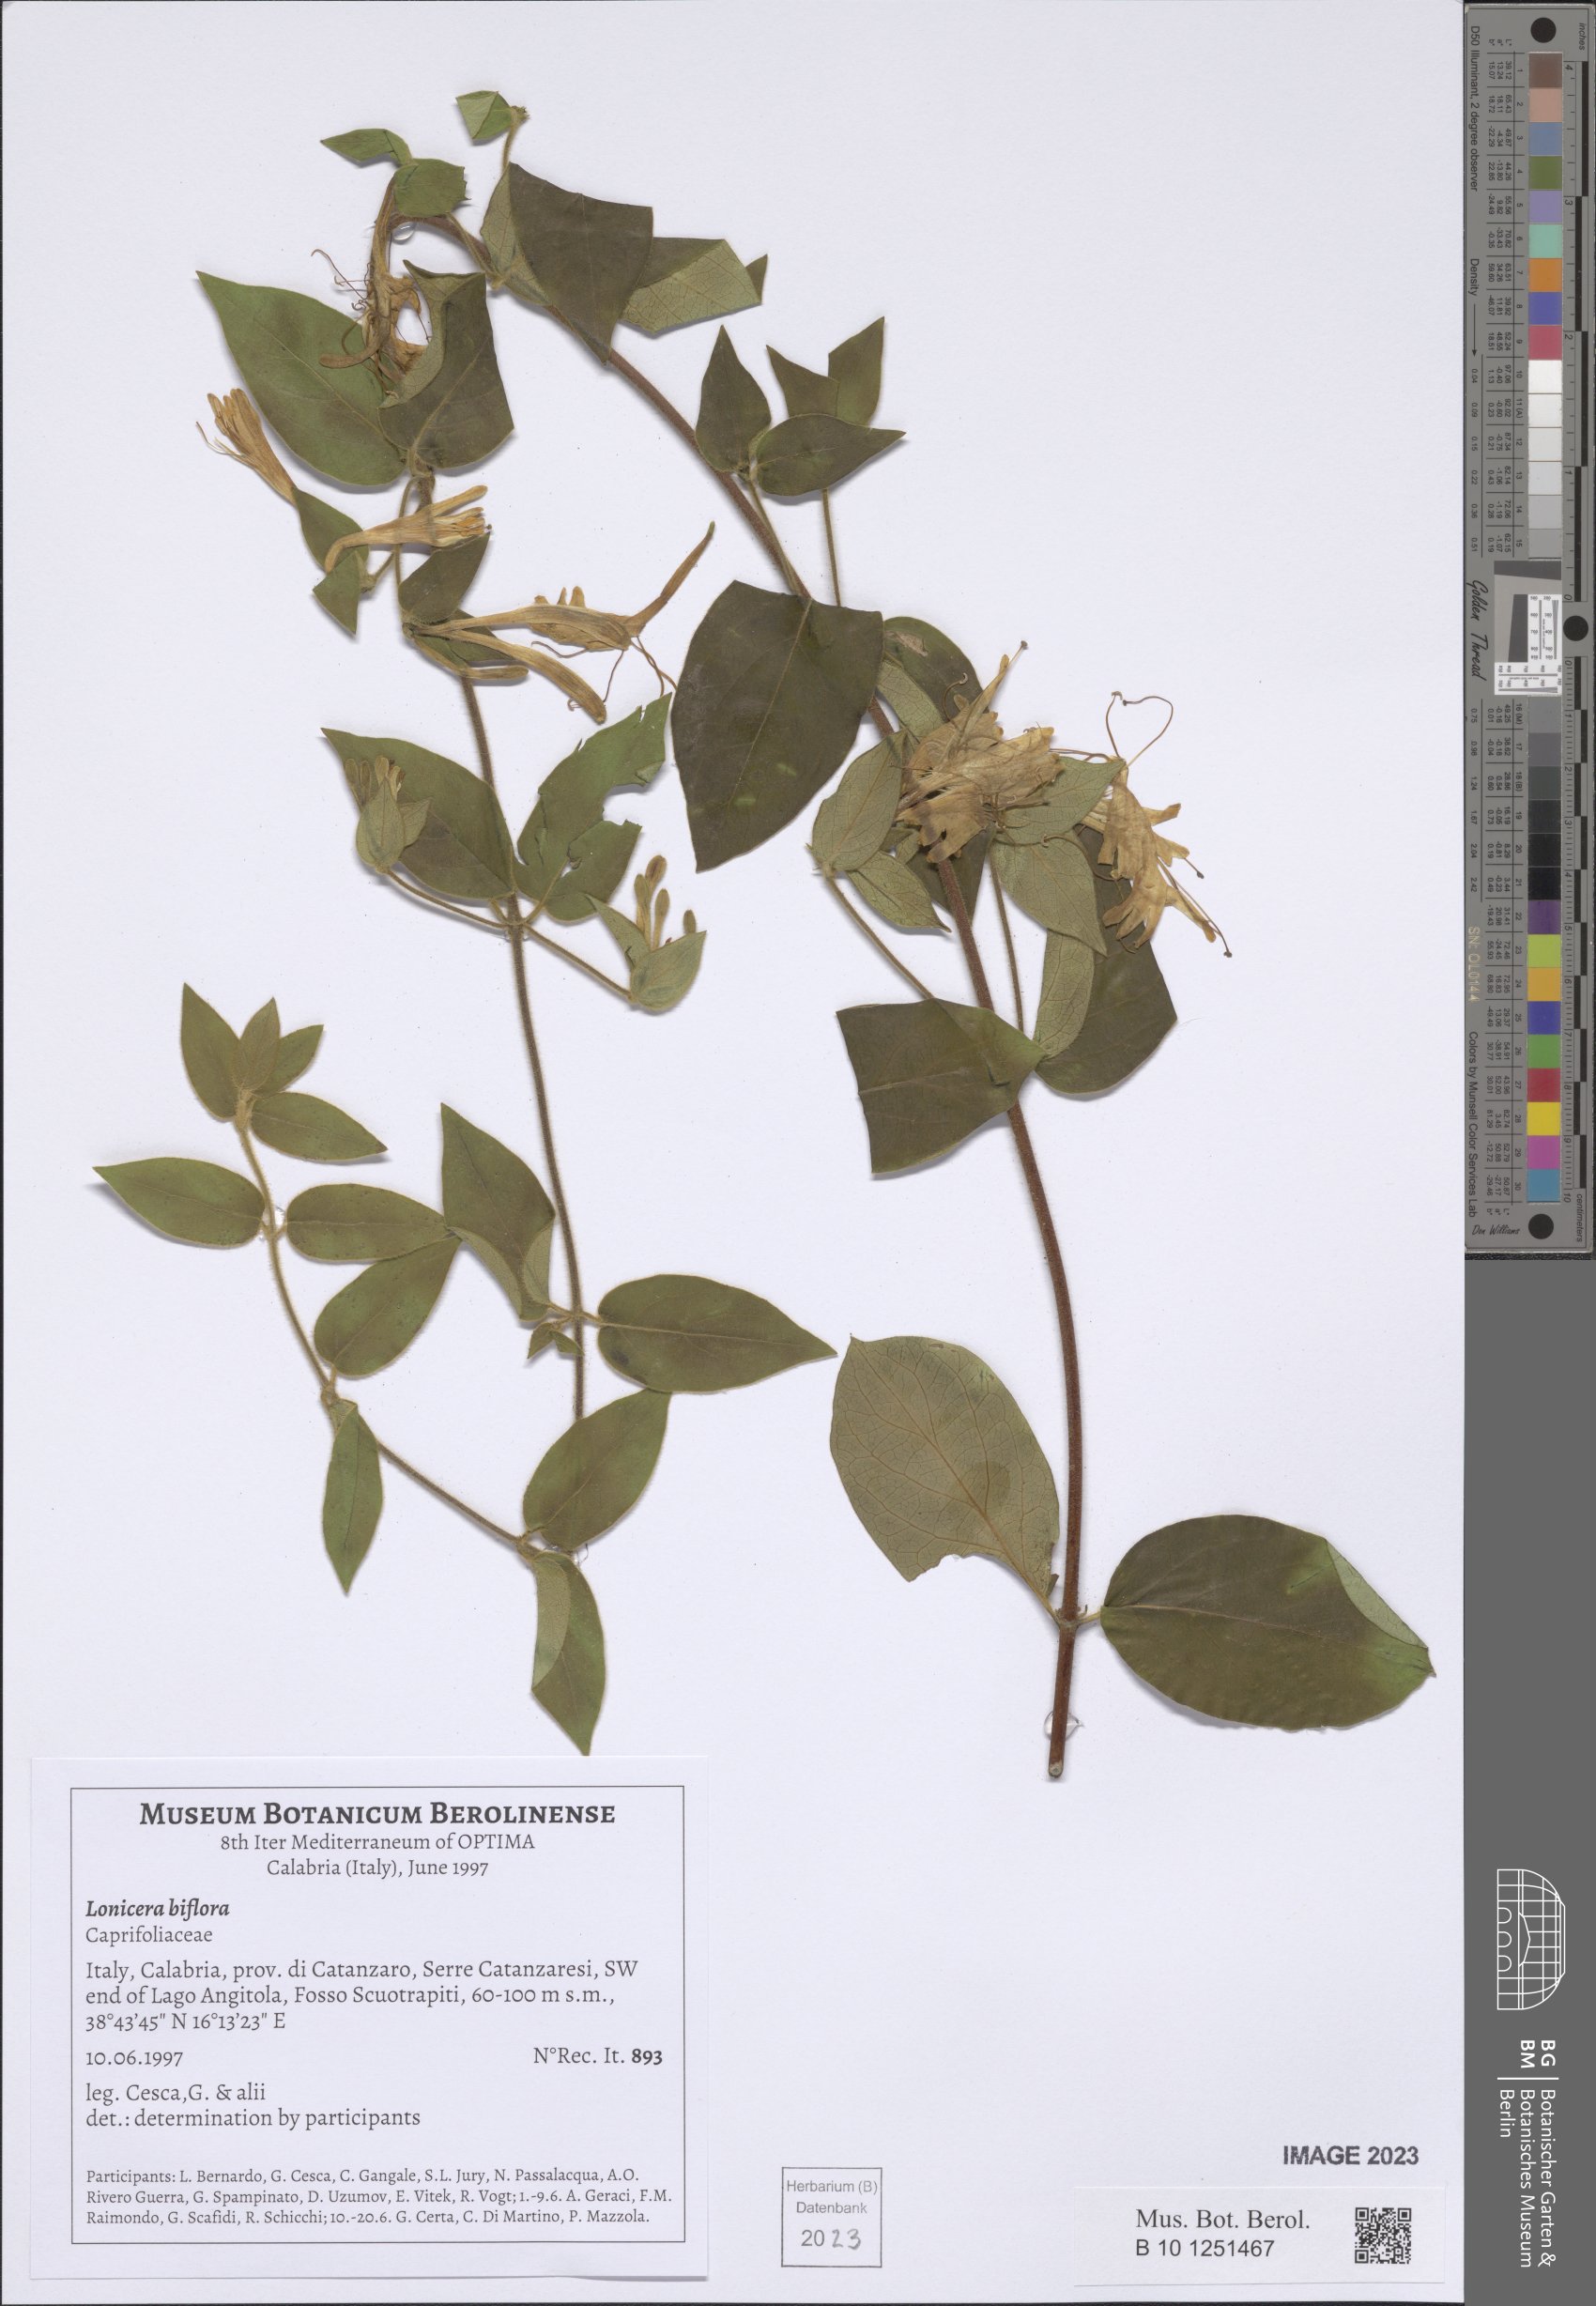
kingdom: Plantae
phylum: Tracheophyta
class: Magnoliopsida
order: Dipsacales
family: Caprifoliaceae
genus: Lonicera
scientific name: Lonicera biflora
